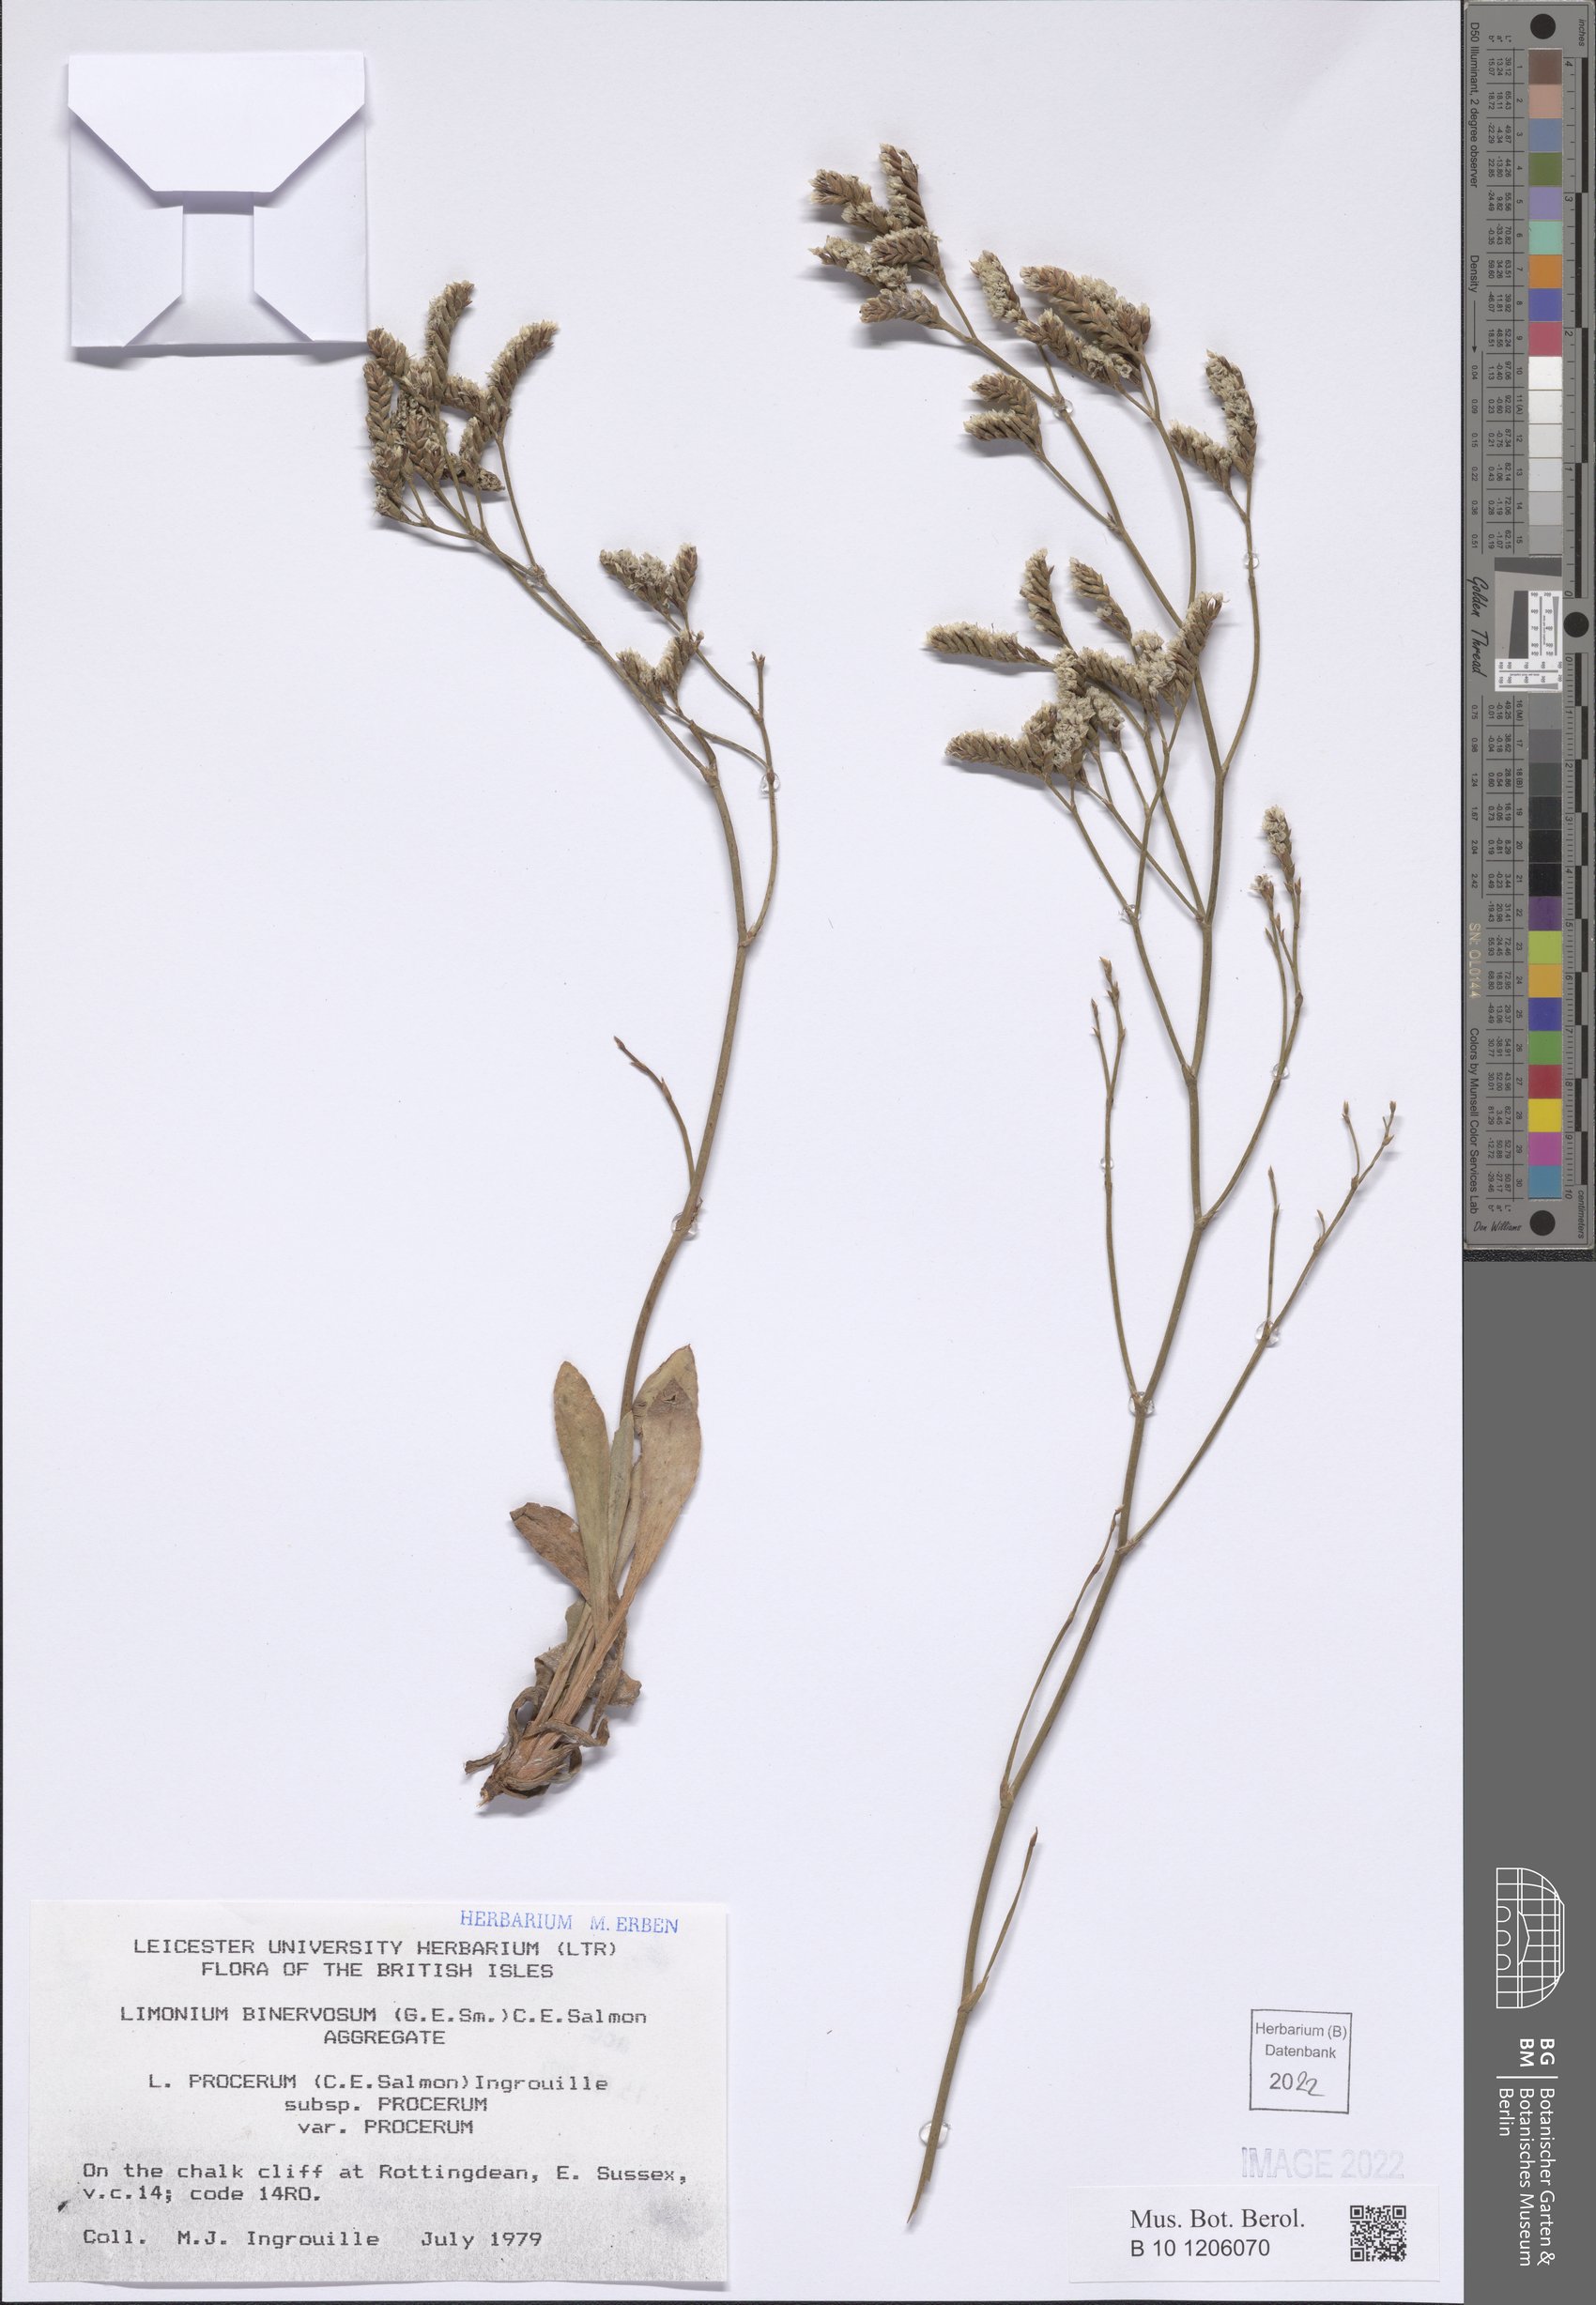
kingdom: Plantae
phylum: Tracheophyta
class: Magnoliopsida
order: Caryophyllales
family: Plumbaginaceae
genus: Limonium
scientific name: Limonium procerum
